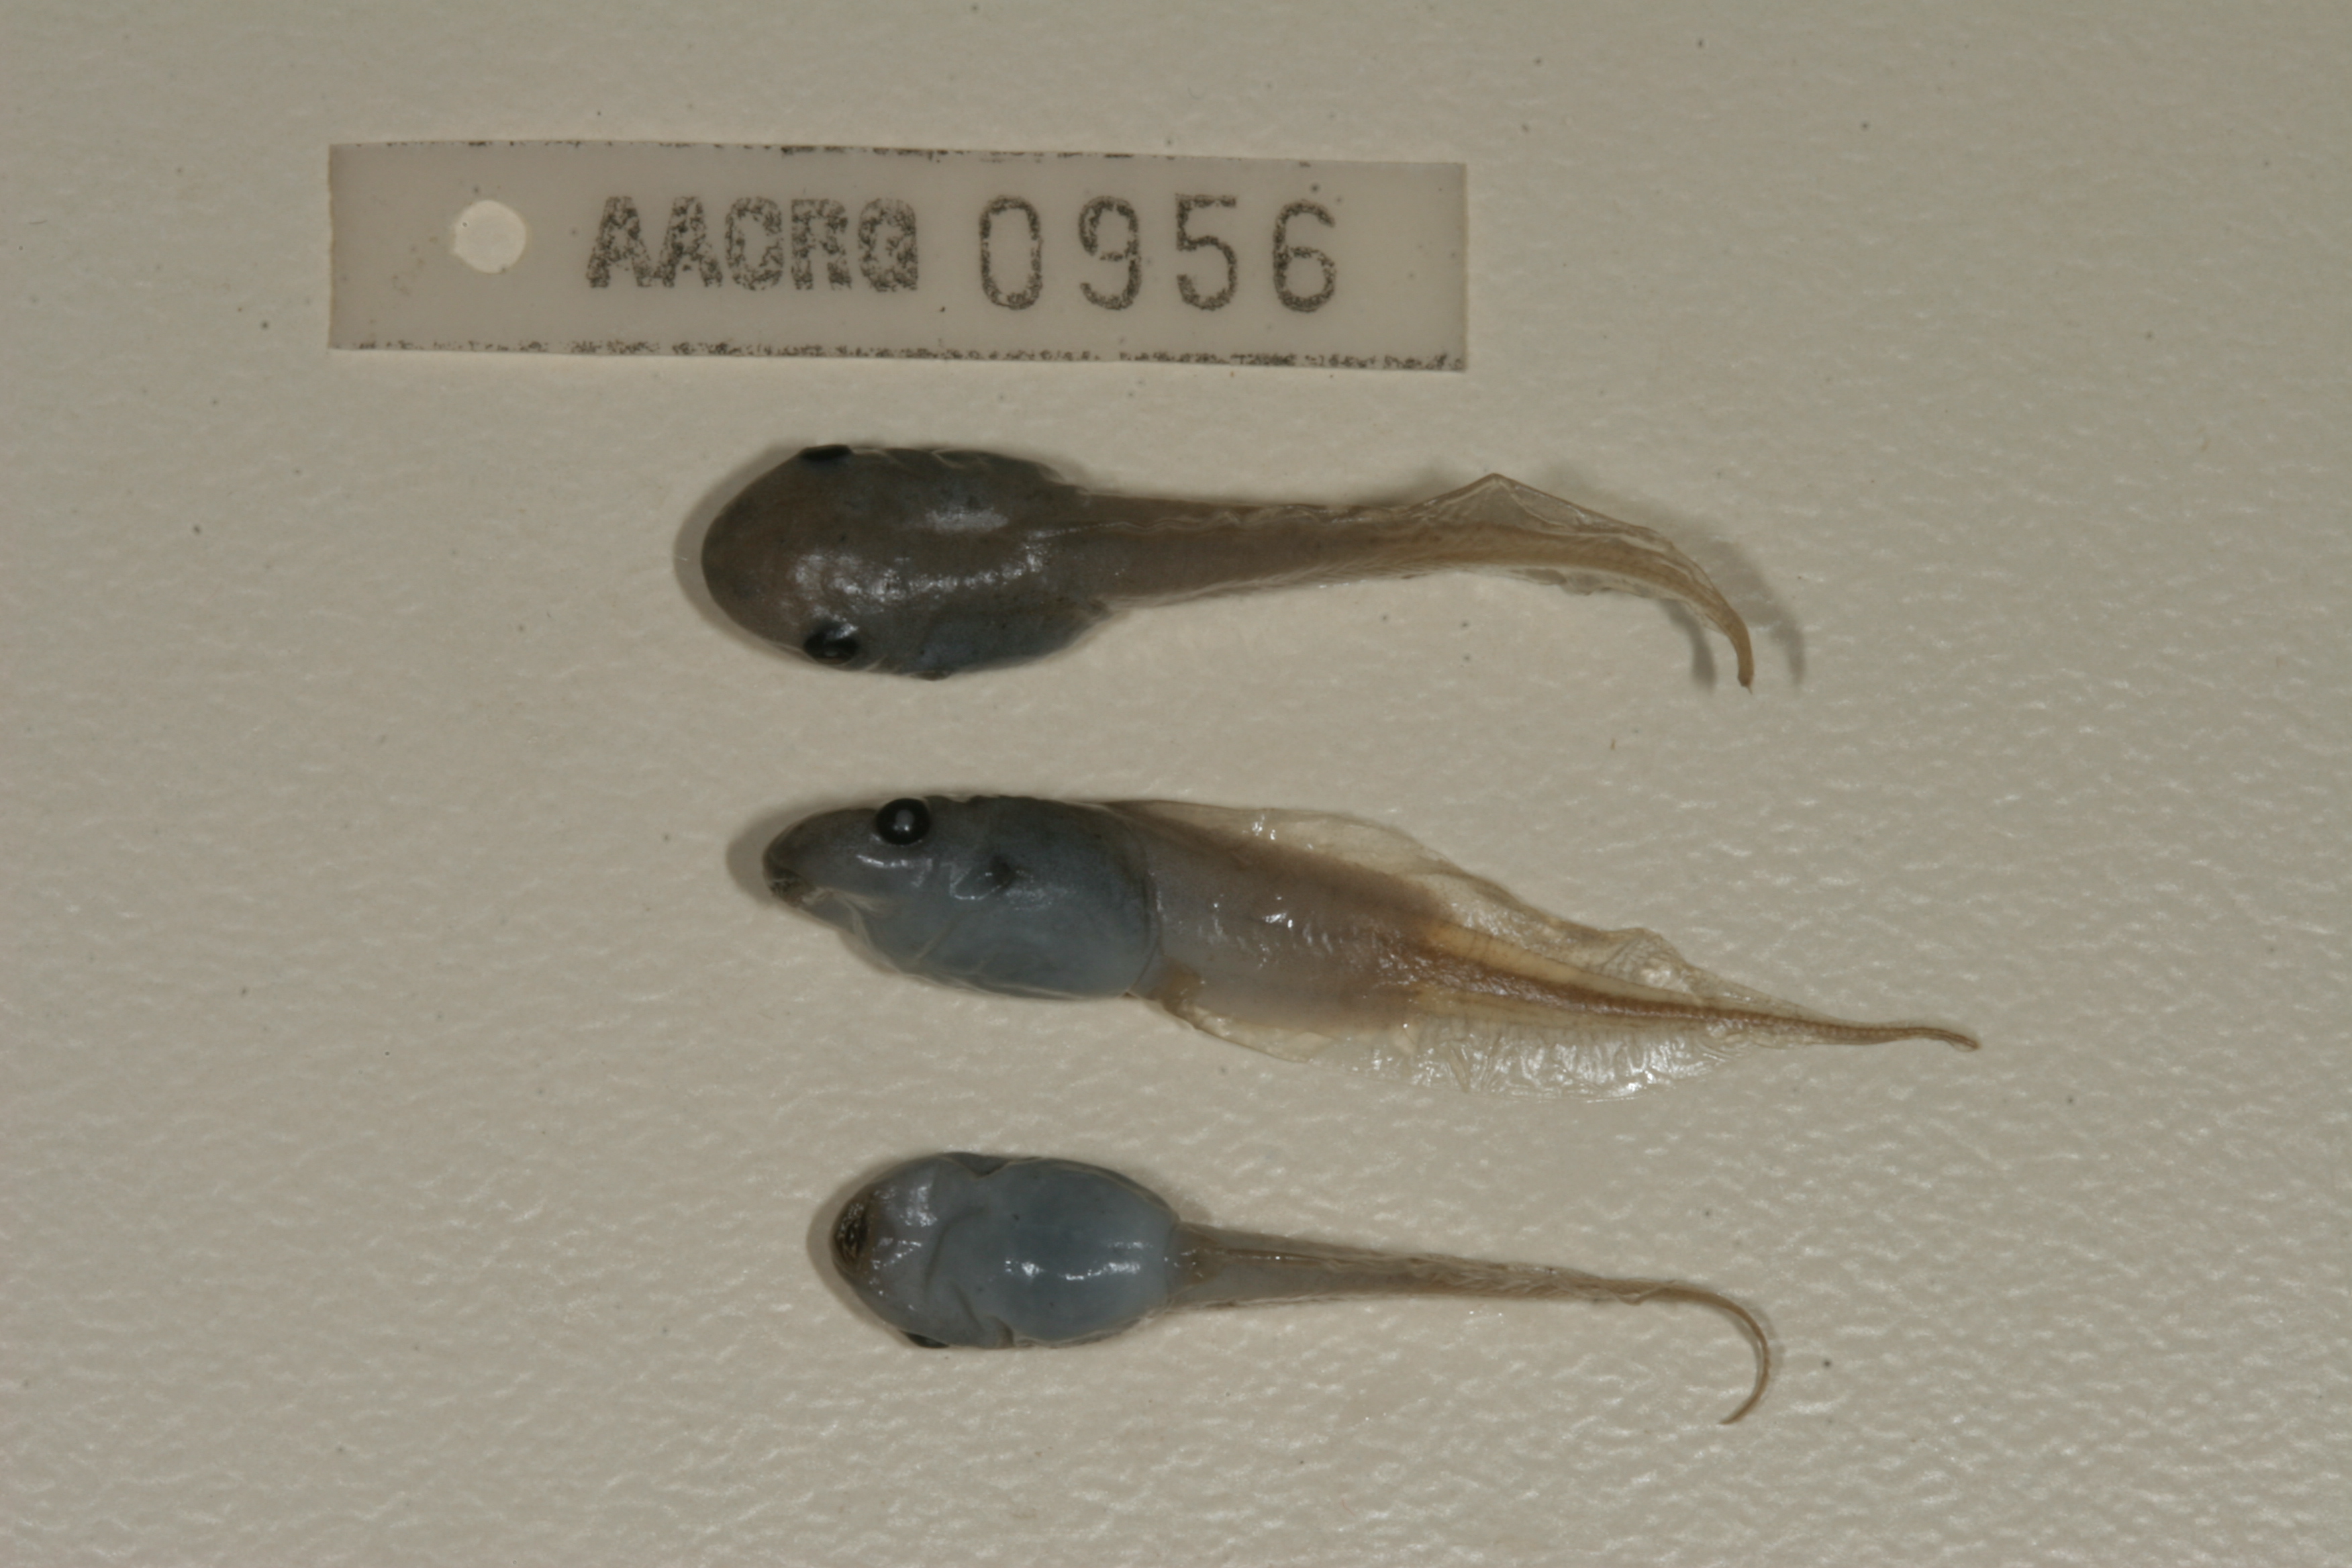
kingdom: Animalia
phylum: Chordata
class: Amphibia
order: Anura
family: Hemisotidae
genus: Hemisus
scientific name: Hemisus marmoratus
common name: Mottled shovel-nosed frog
